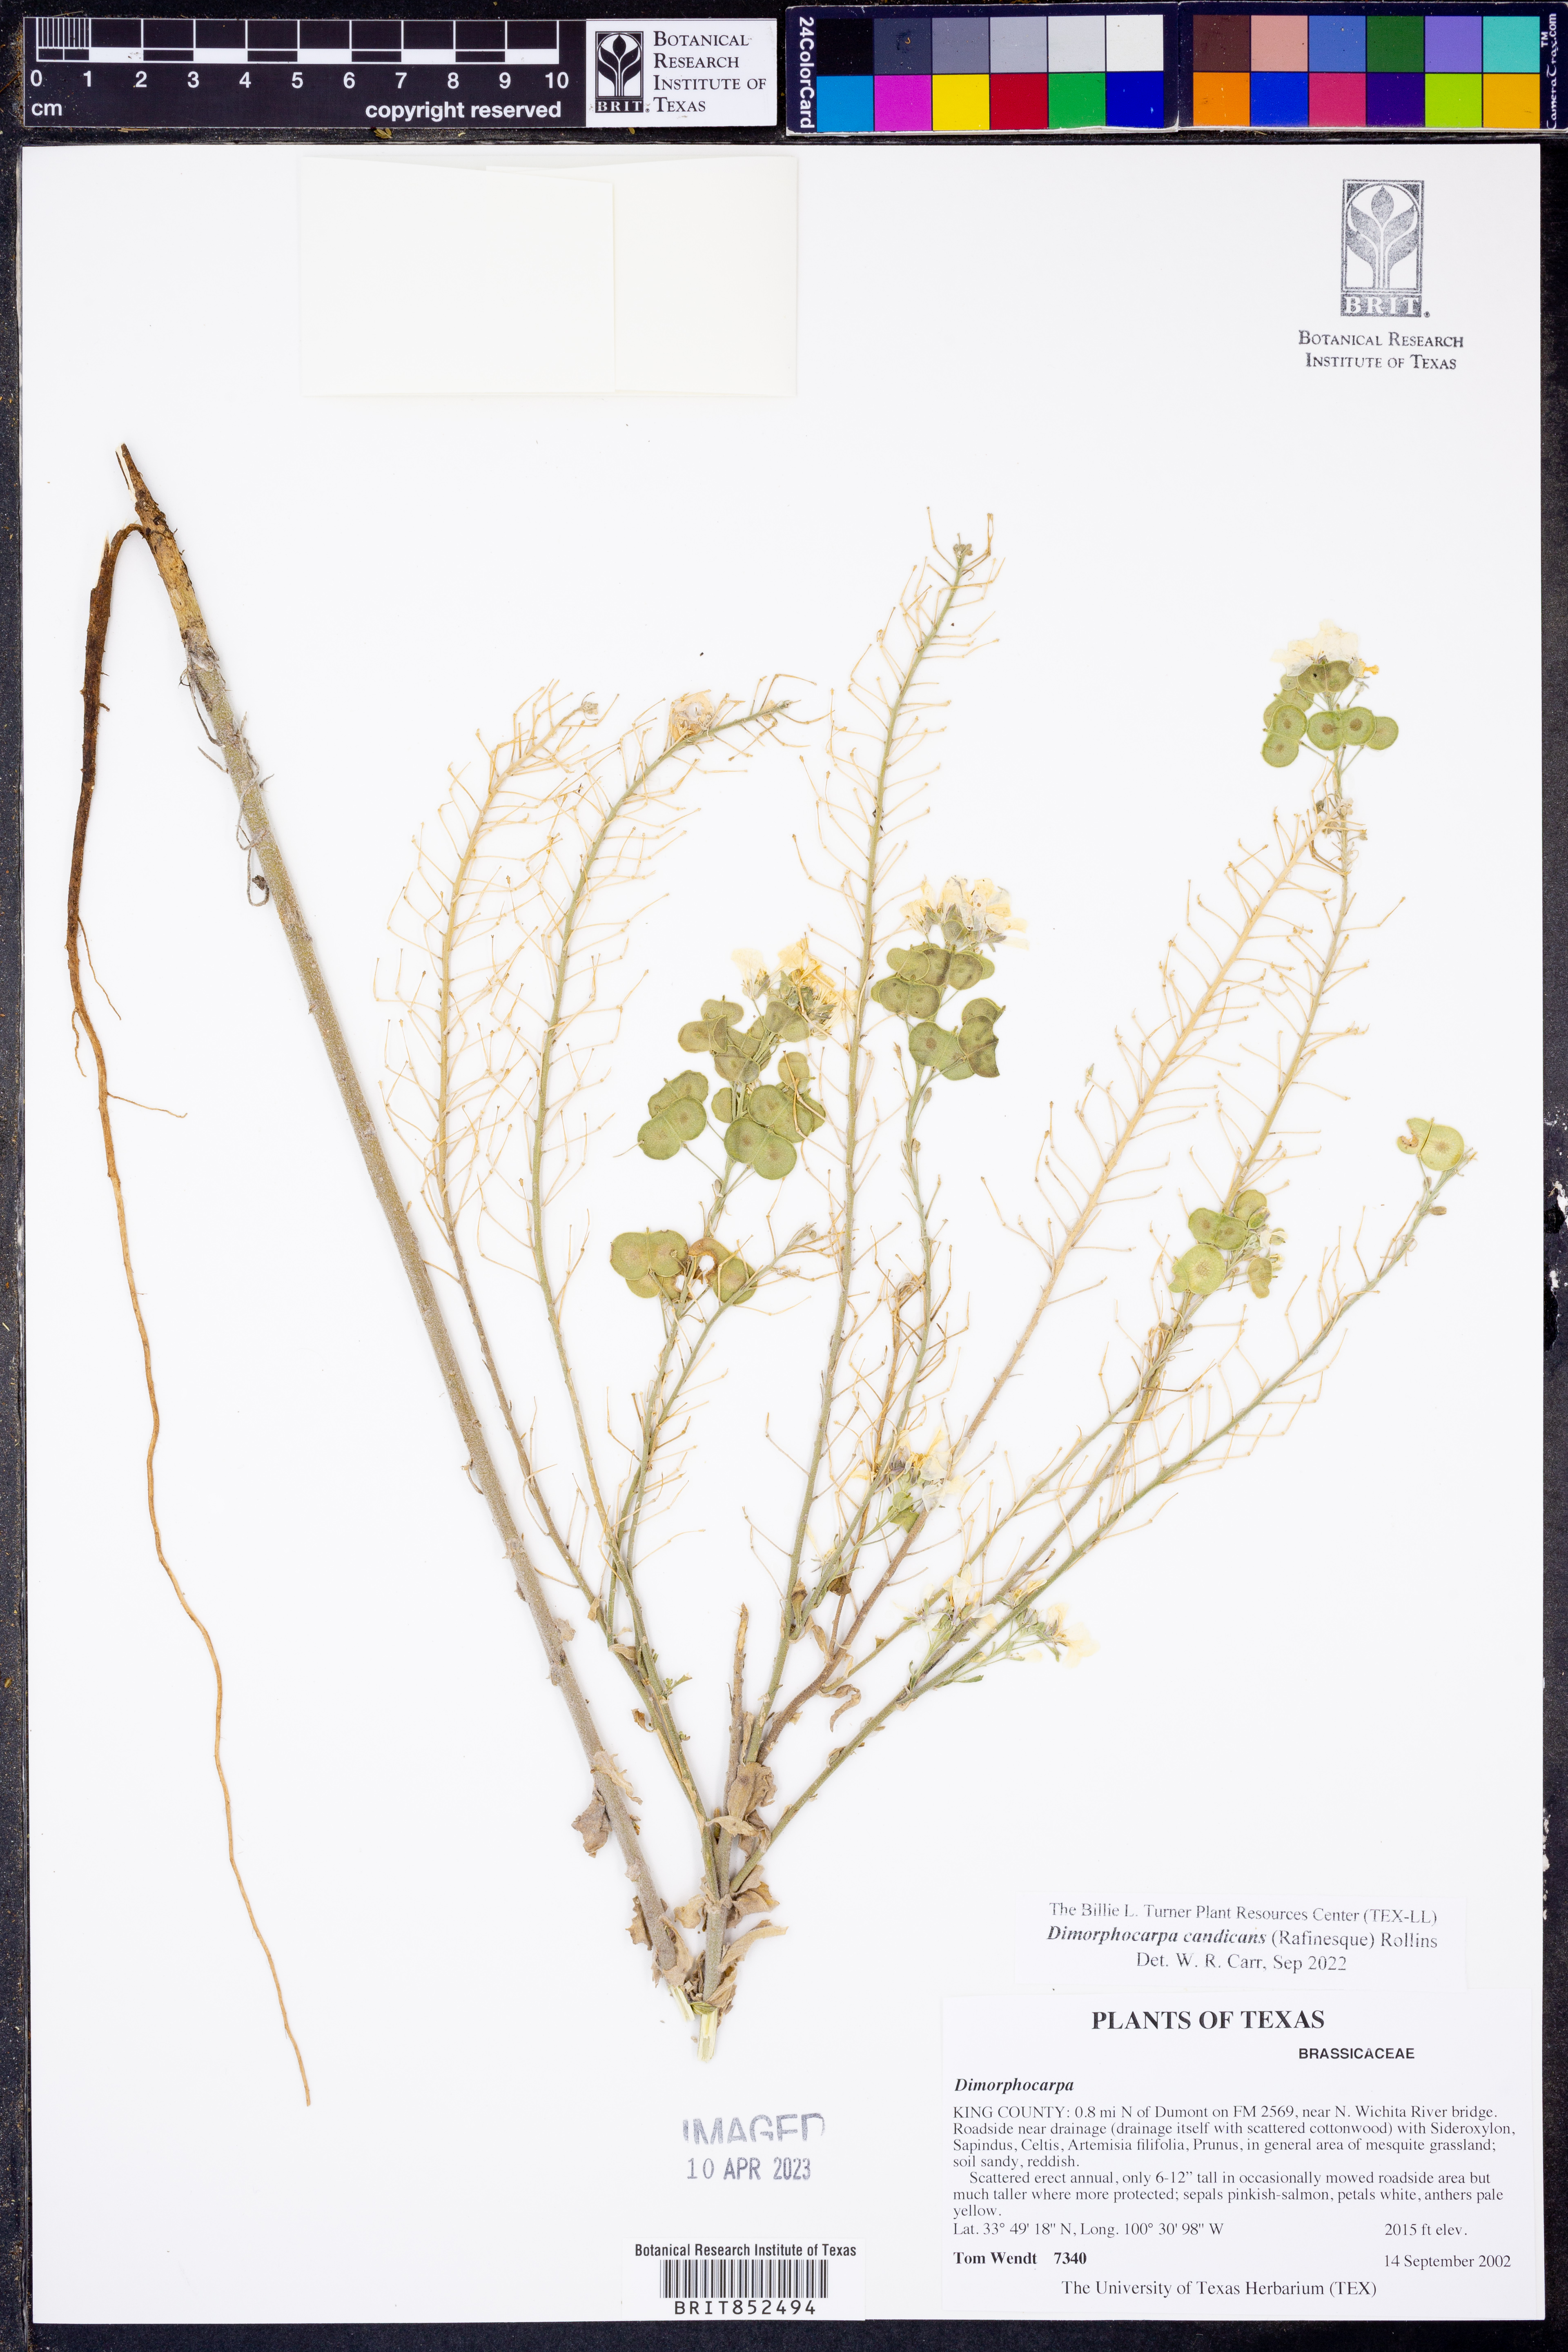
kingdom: Plantae
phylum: Tracheophyta
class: Magnoliopsida
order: Brassicales
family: Brassicaceae
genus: Dimorphocarpa
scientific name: Dimorphocarpa candicans
